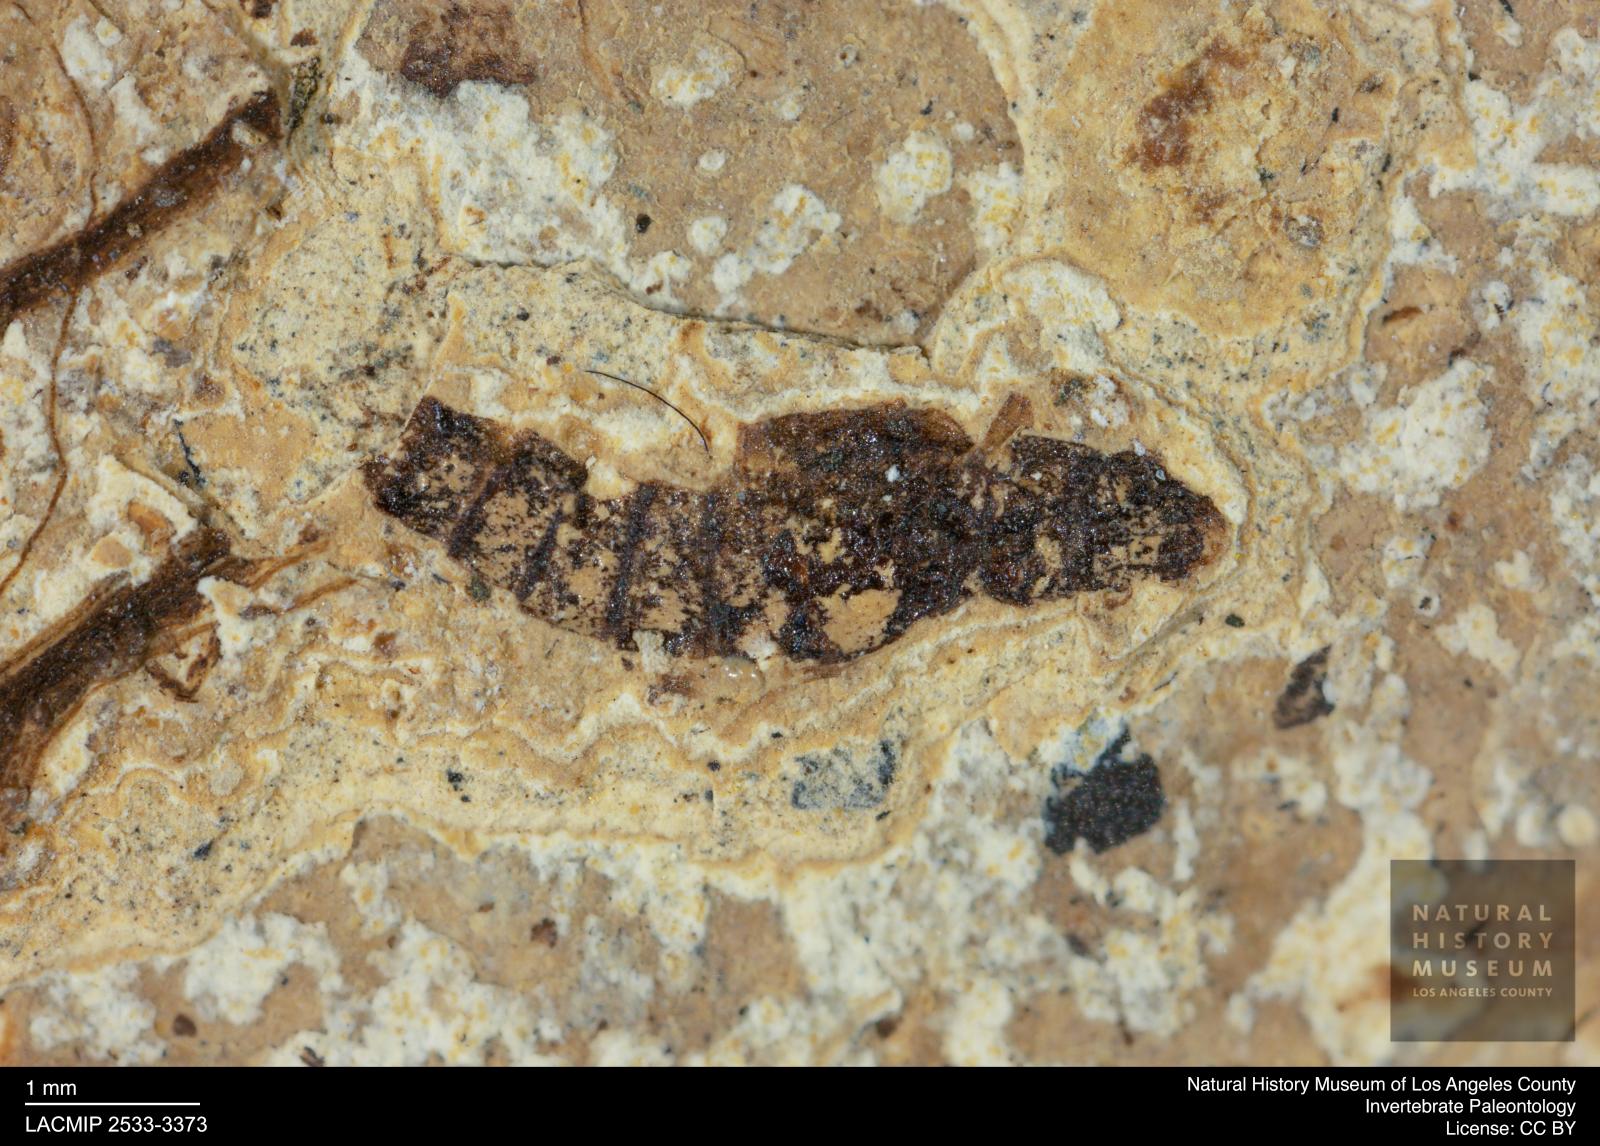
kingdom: Animalia
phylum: Arthropoda
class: Insecta
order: Coleoptera
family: Staphylinidae
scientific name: Staphylinidae
